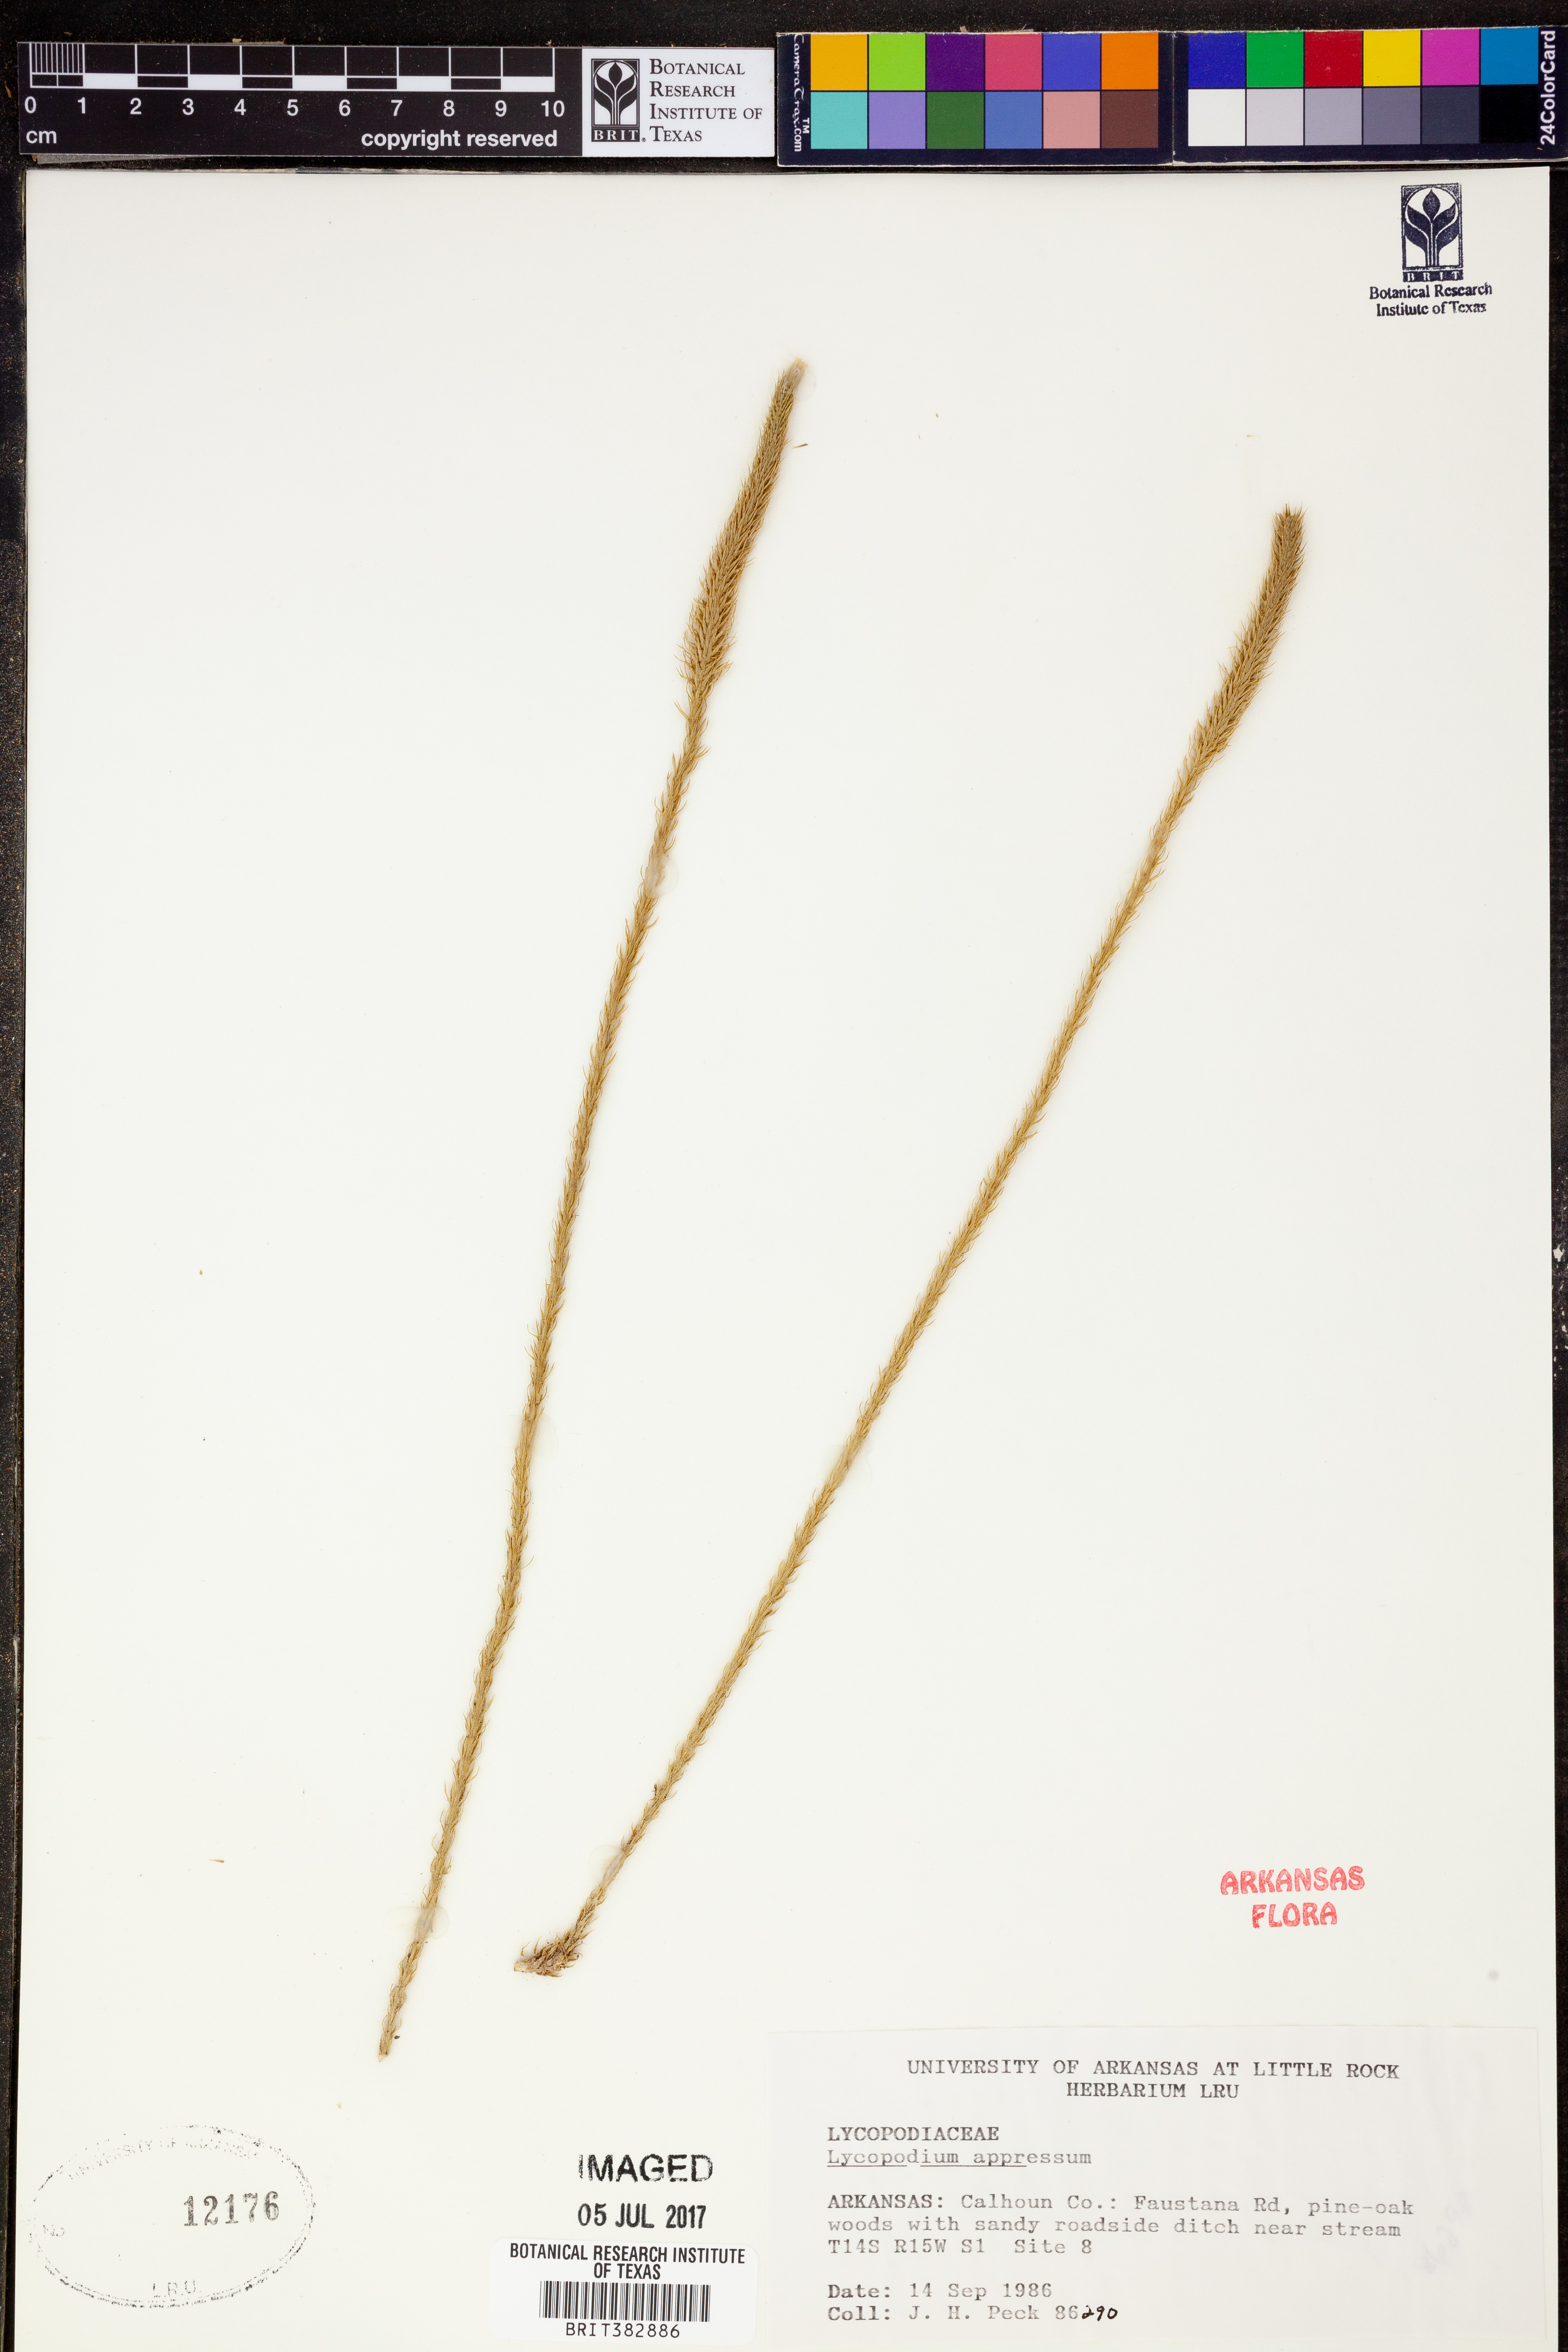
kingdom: Plantae
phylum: Tracheophyta
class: Lycopodiopsida
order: Lycopodiales
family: Lycopodiaceae
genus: Lycopodiella
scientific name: Lycopodiella appressa
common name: Appressed bog clubmoss
